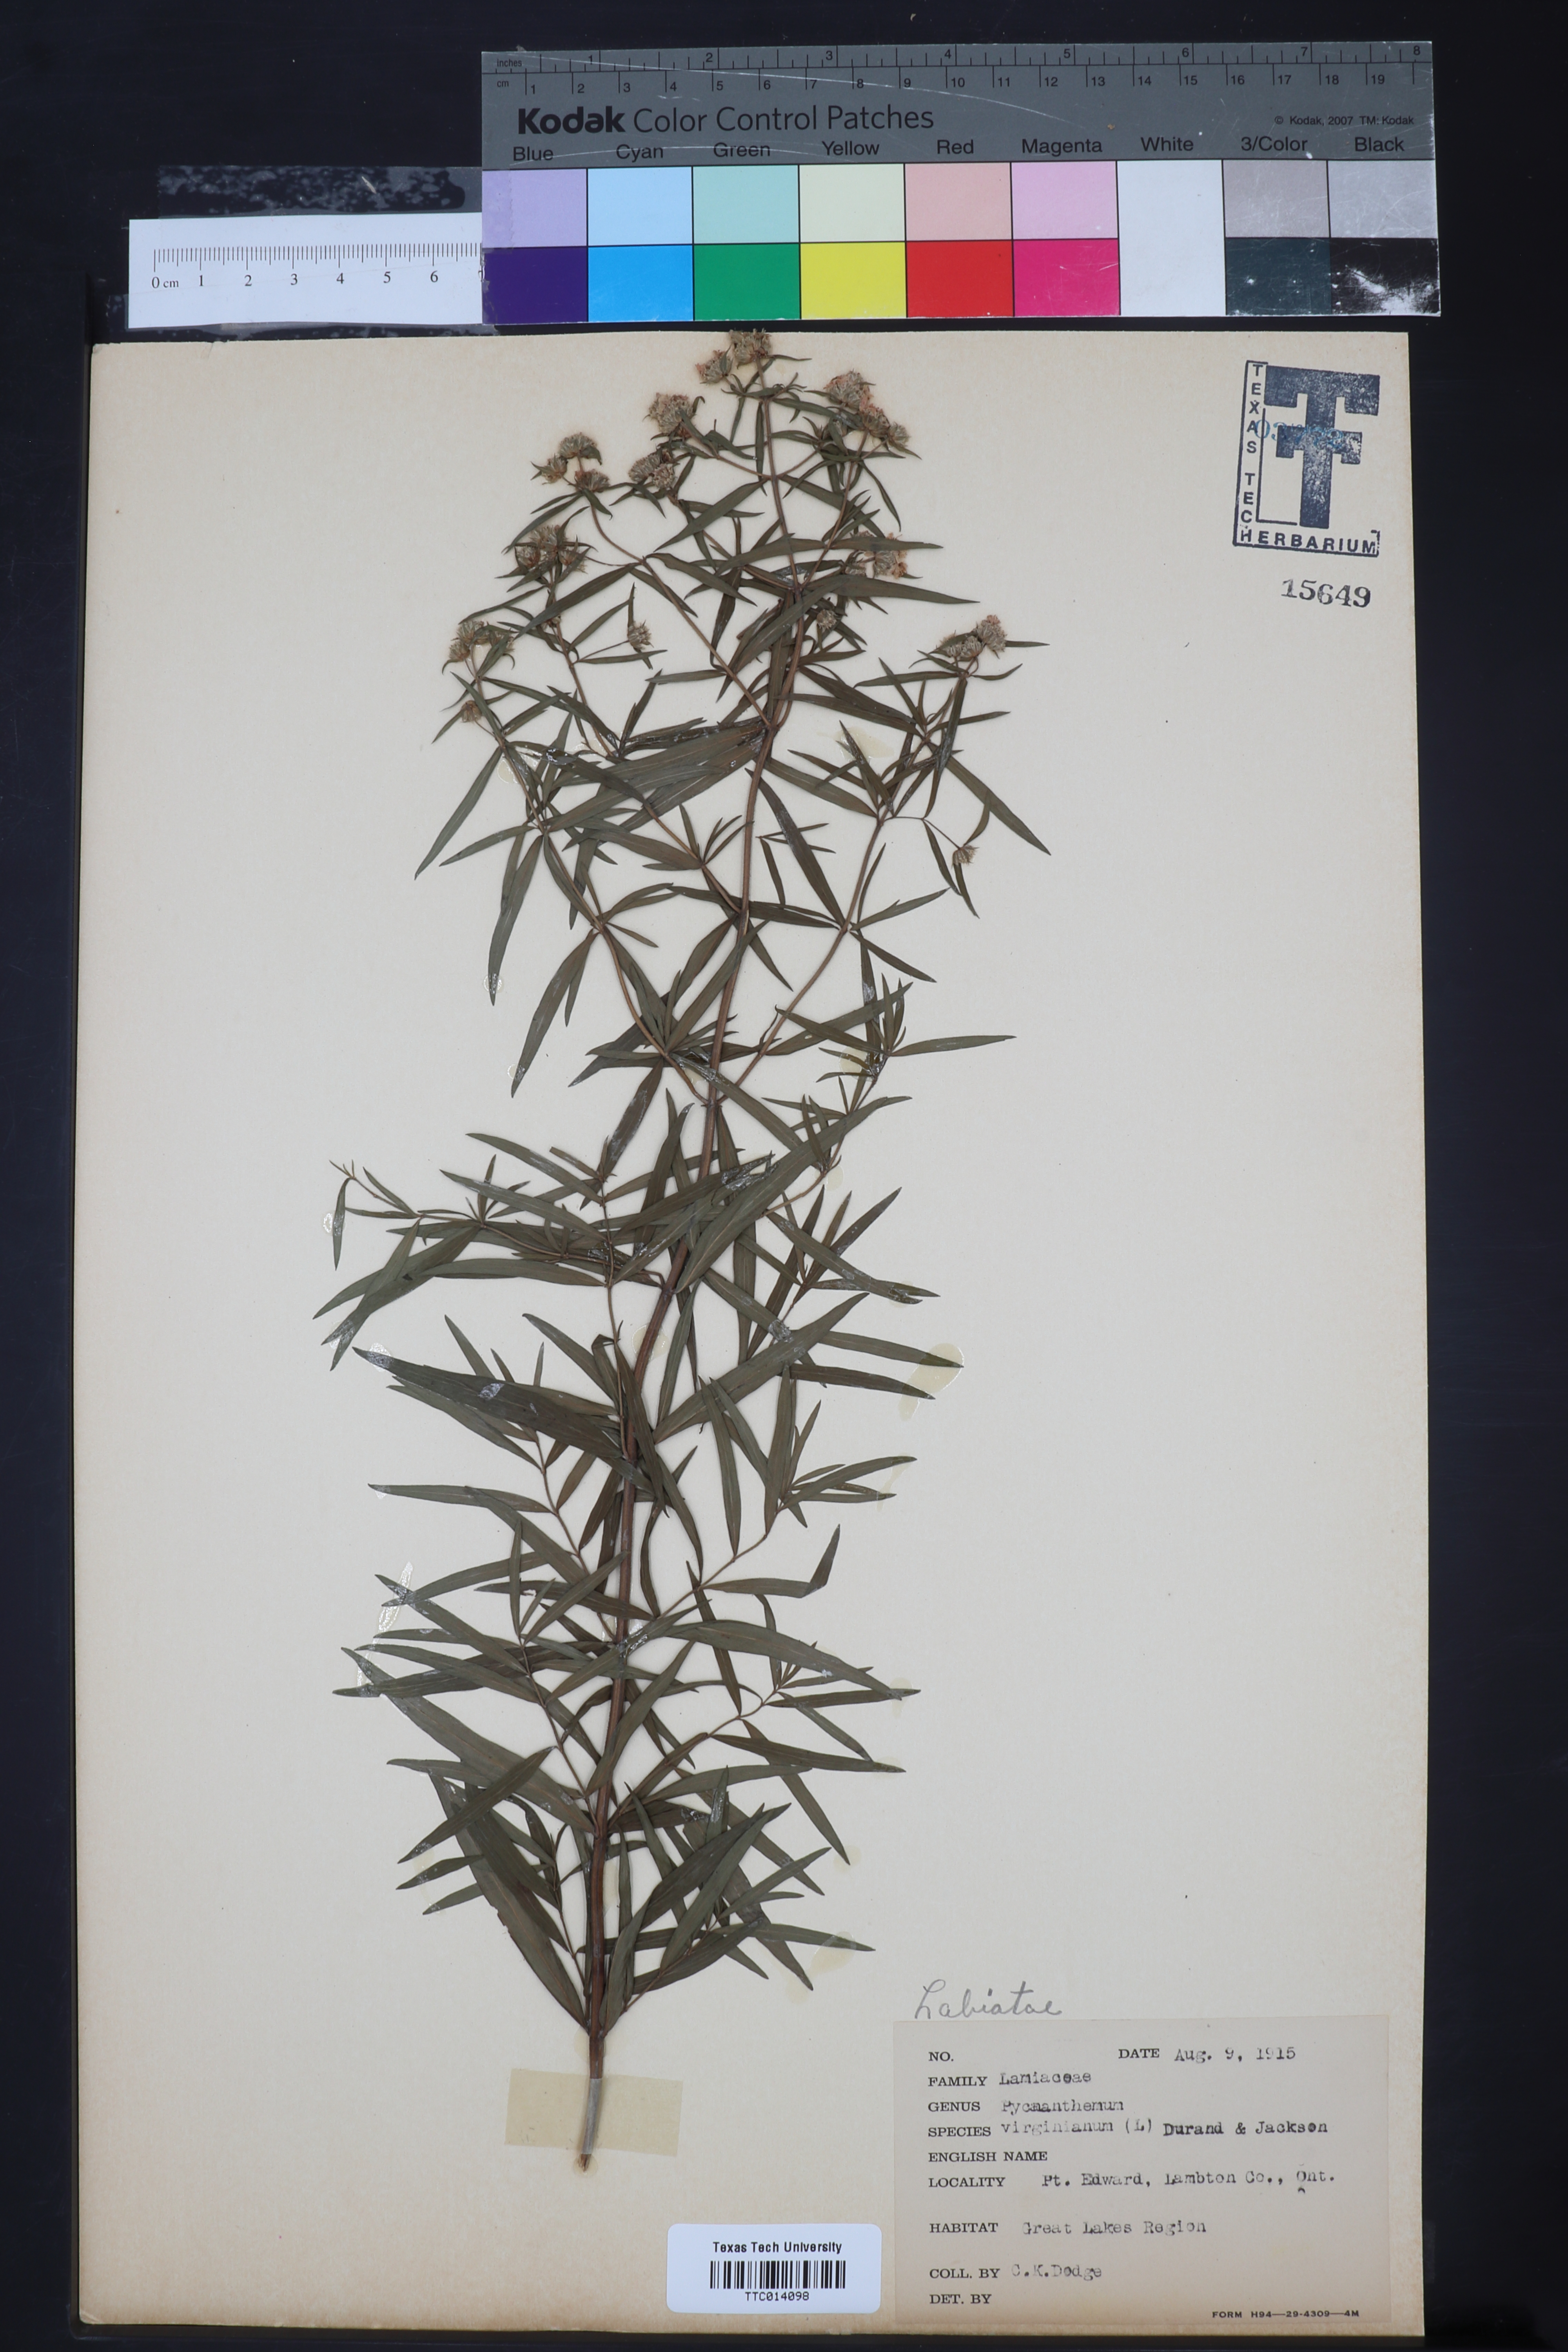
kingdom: Plantae
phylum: Tracheophyta
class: Magnoliopsida
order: Lamiales
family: Lamiaceae
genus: Pycnanthemum
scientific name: Pycnanthemum virginianum
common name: Virginia mountain-mint
